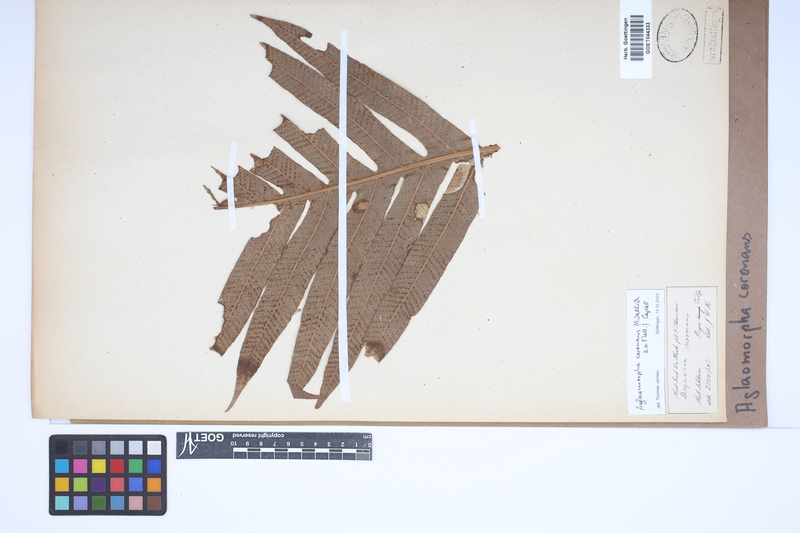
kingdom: Plantae
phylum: Tracheophyta
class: Polypodiopsida
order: Polypodiales
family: Polypodiaceae
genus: Drynaria
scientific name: Drynaria coronans
